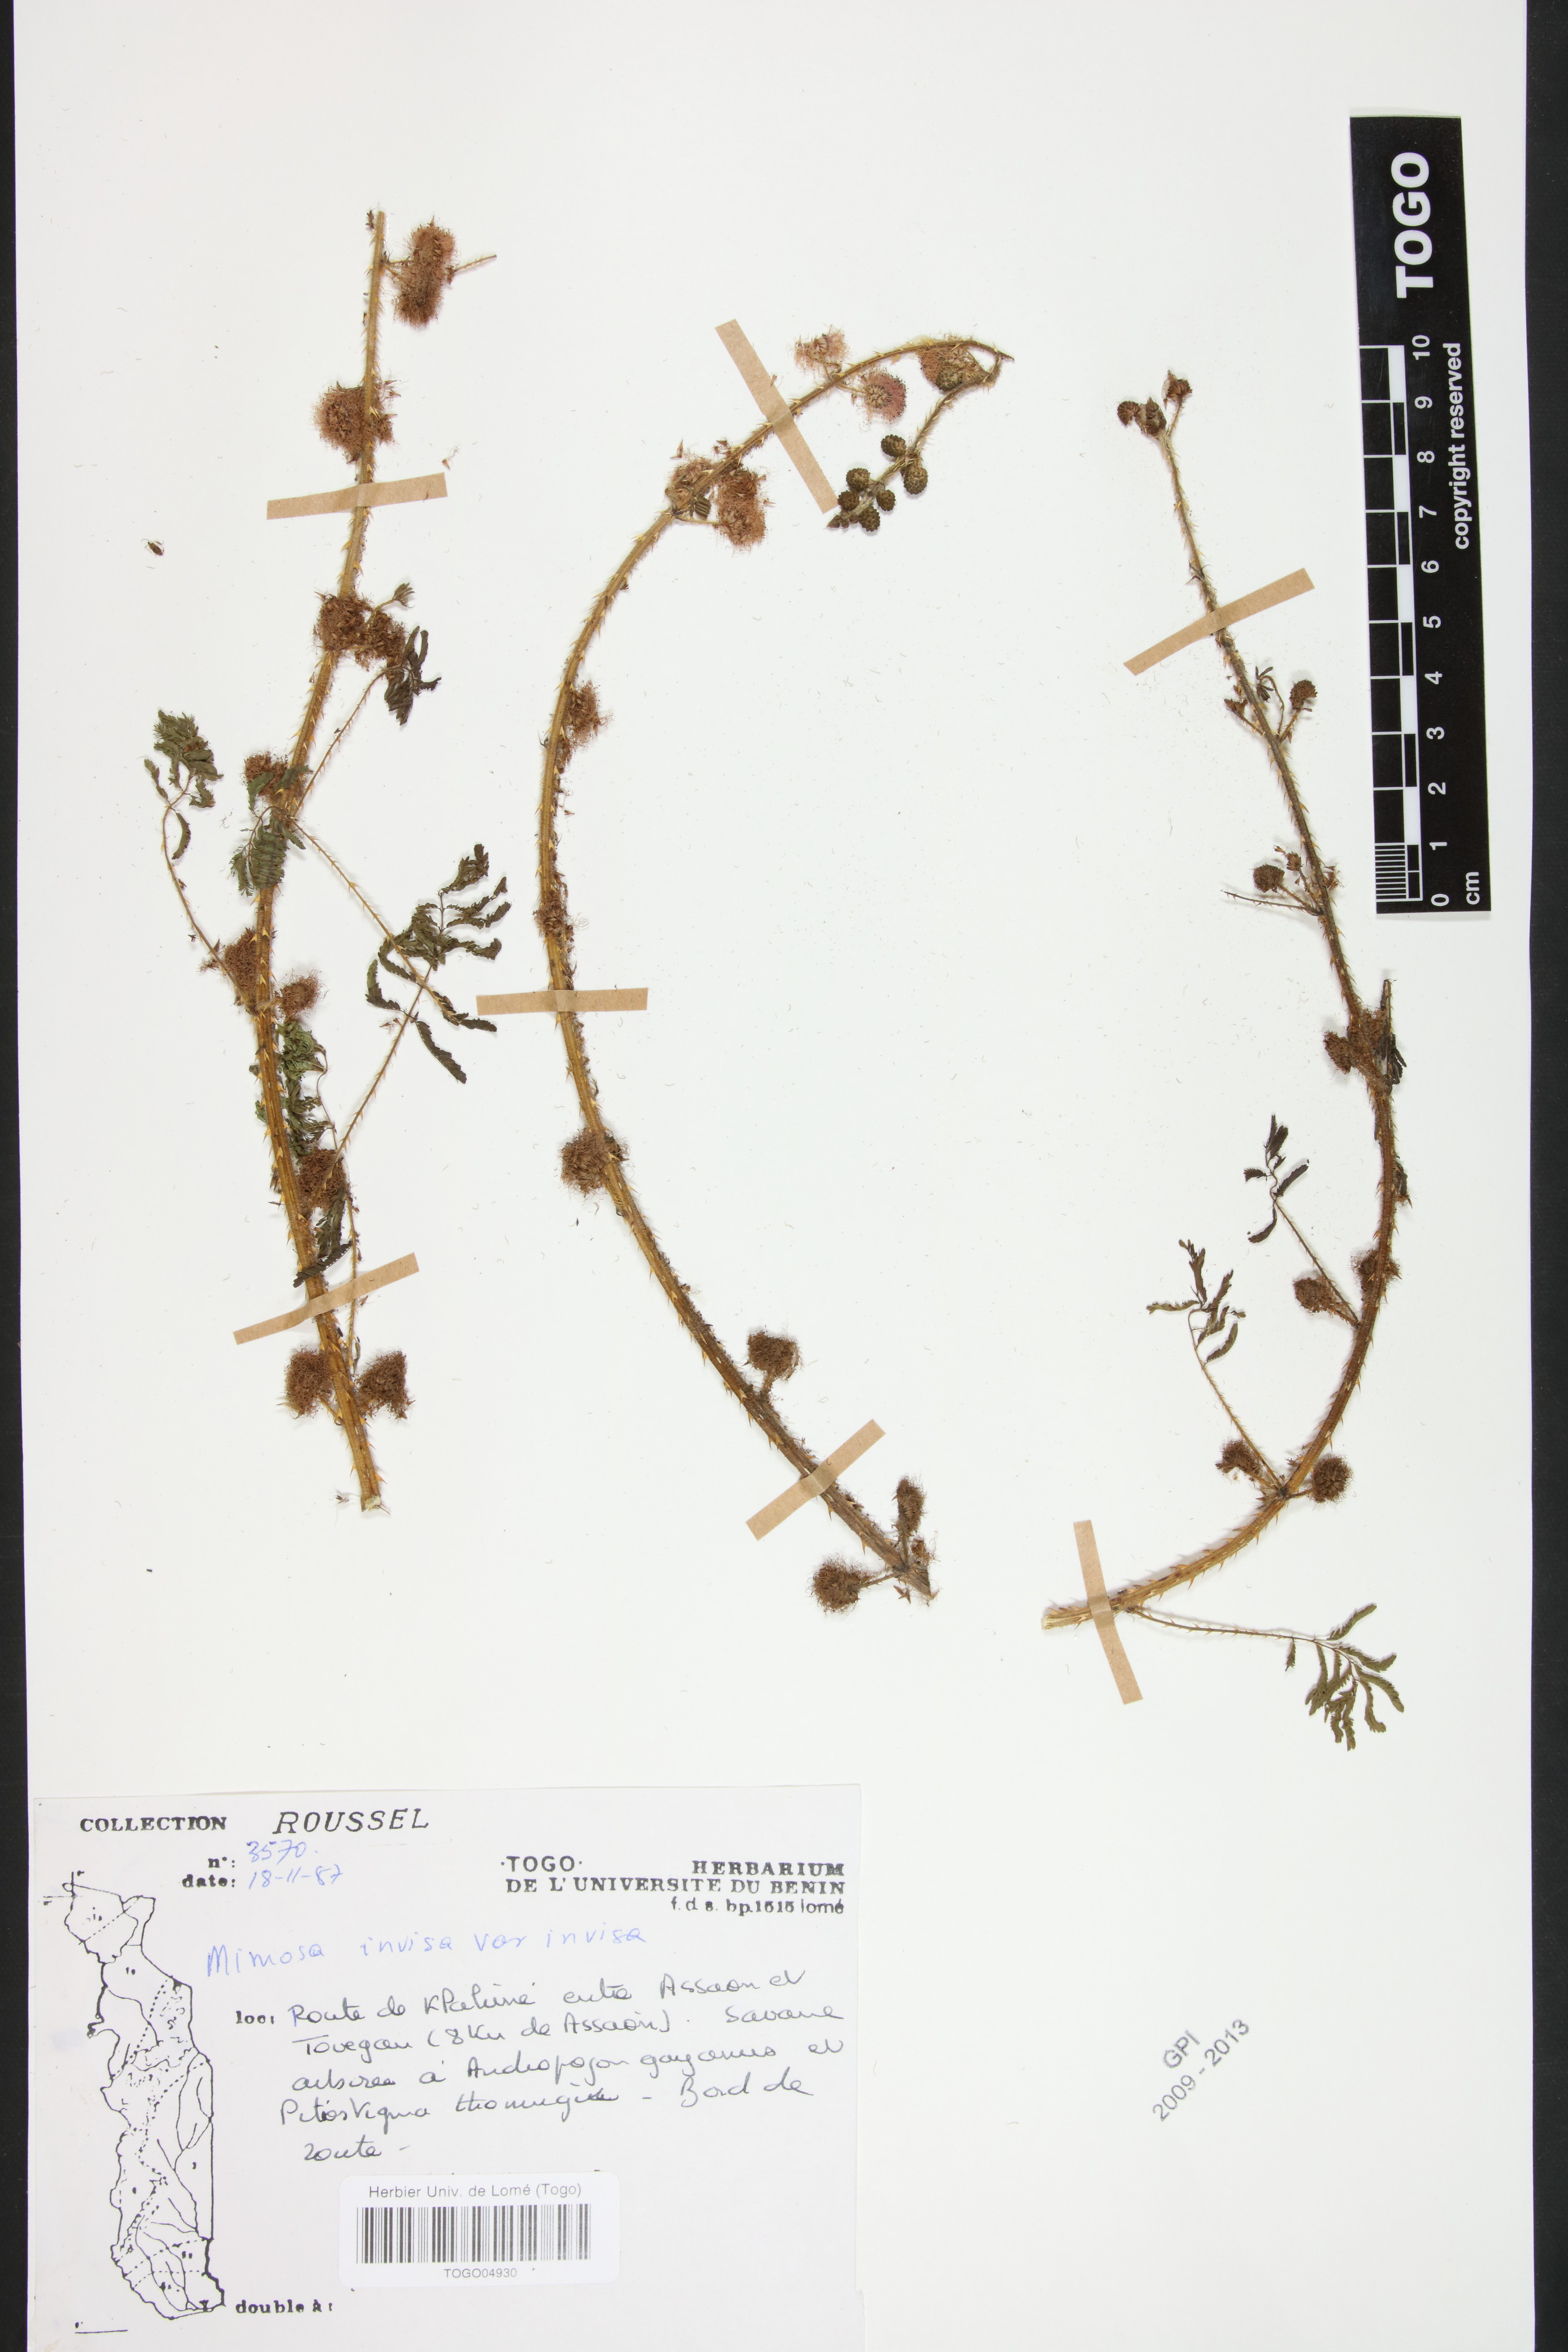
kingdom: Plantae
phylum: Tracheophyta
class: Magnoliopsida
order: Fabales
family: Fabaceae
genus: Mimosa
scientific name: Mimosa invisa
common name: Creeping sensitive-plant
